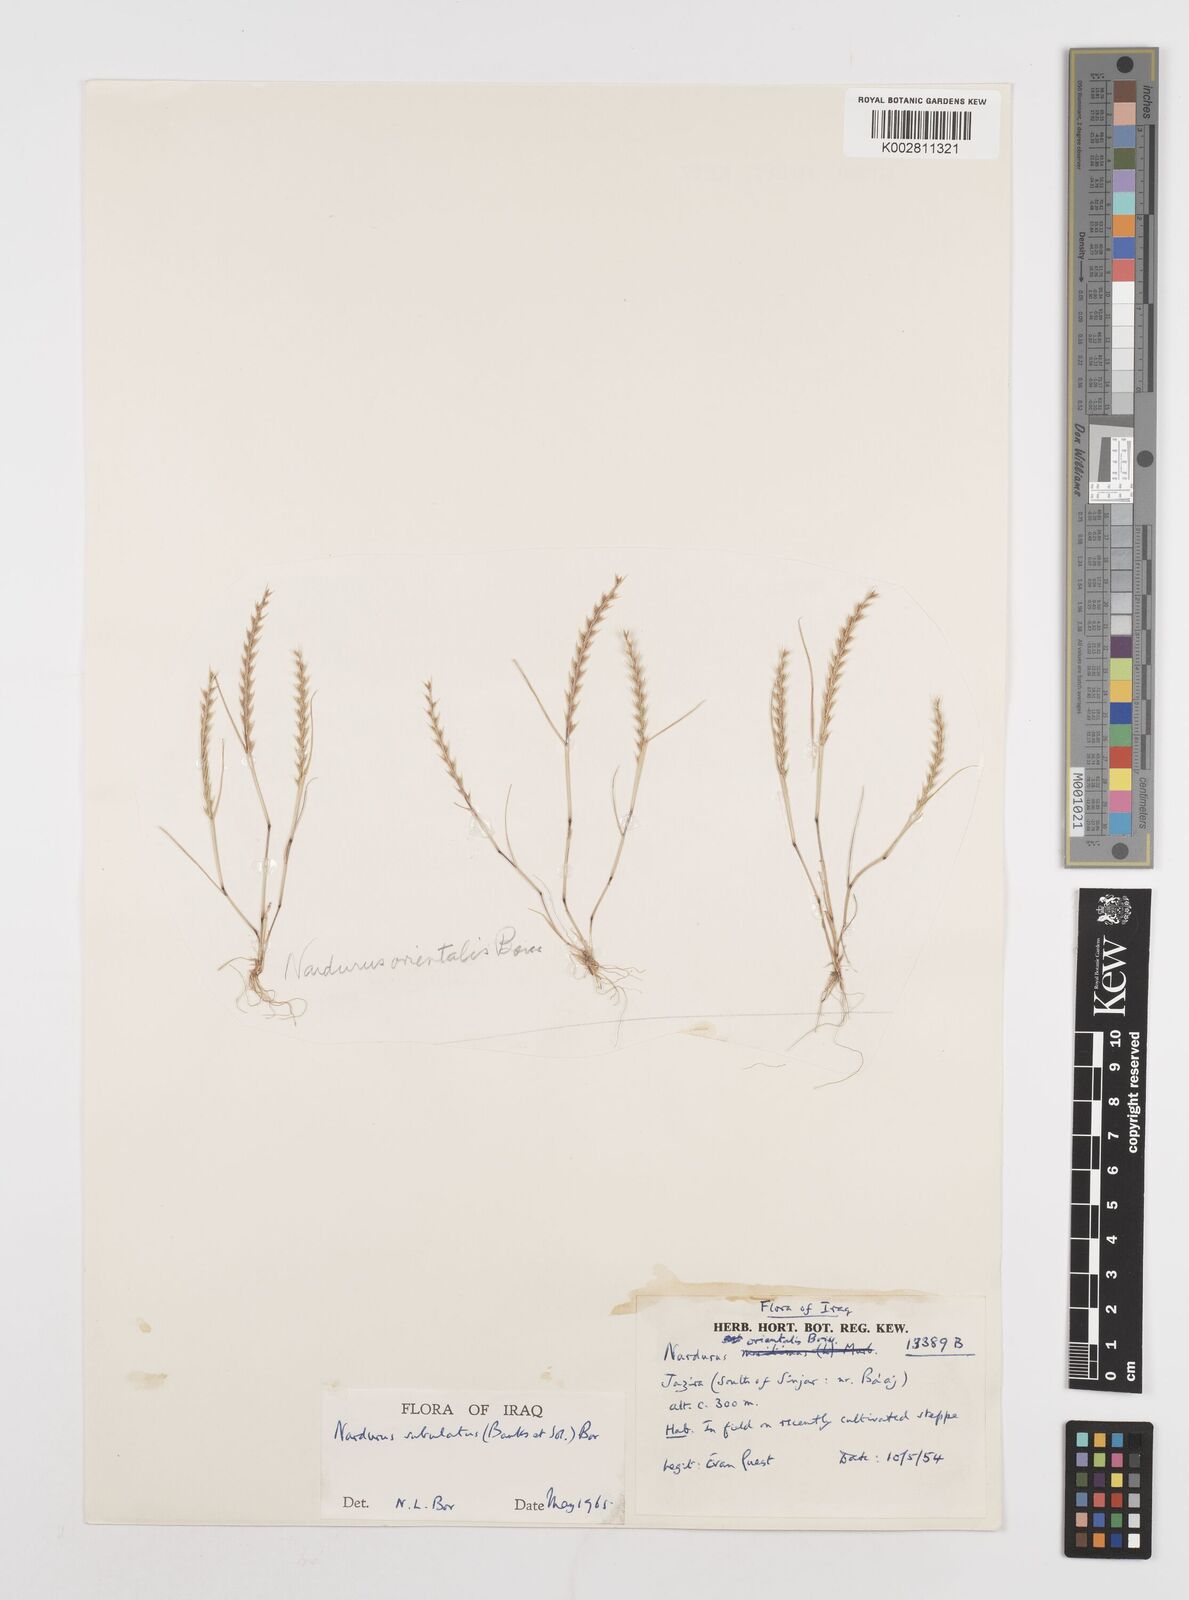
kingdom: Plantae
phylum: Tracheophyta
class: Liliopsida
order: Poales
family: Poaceae
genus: Festuca
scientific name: Festuca orientalis
